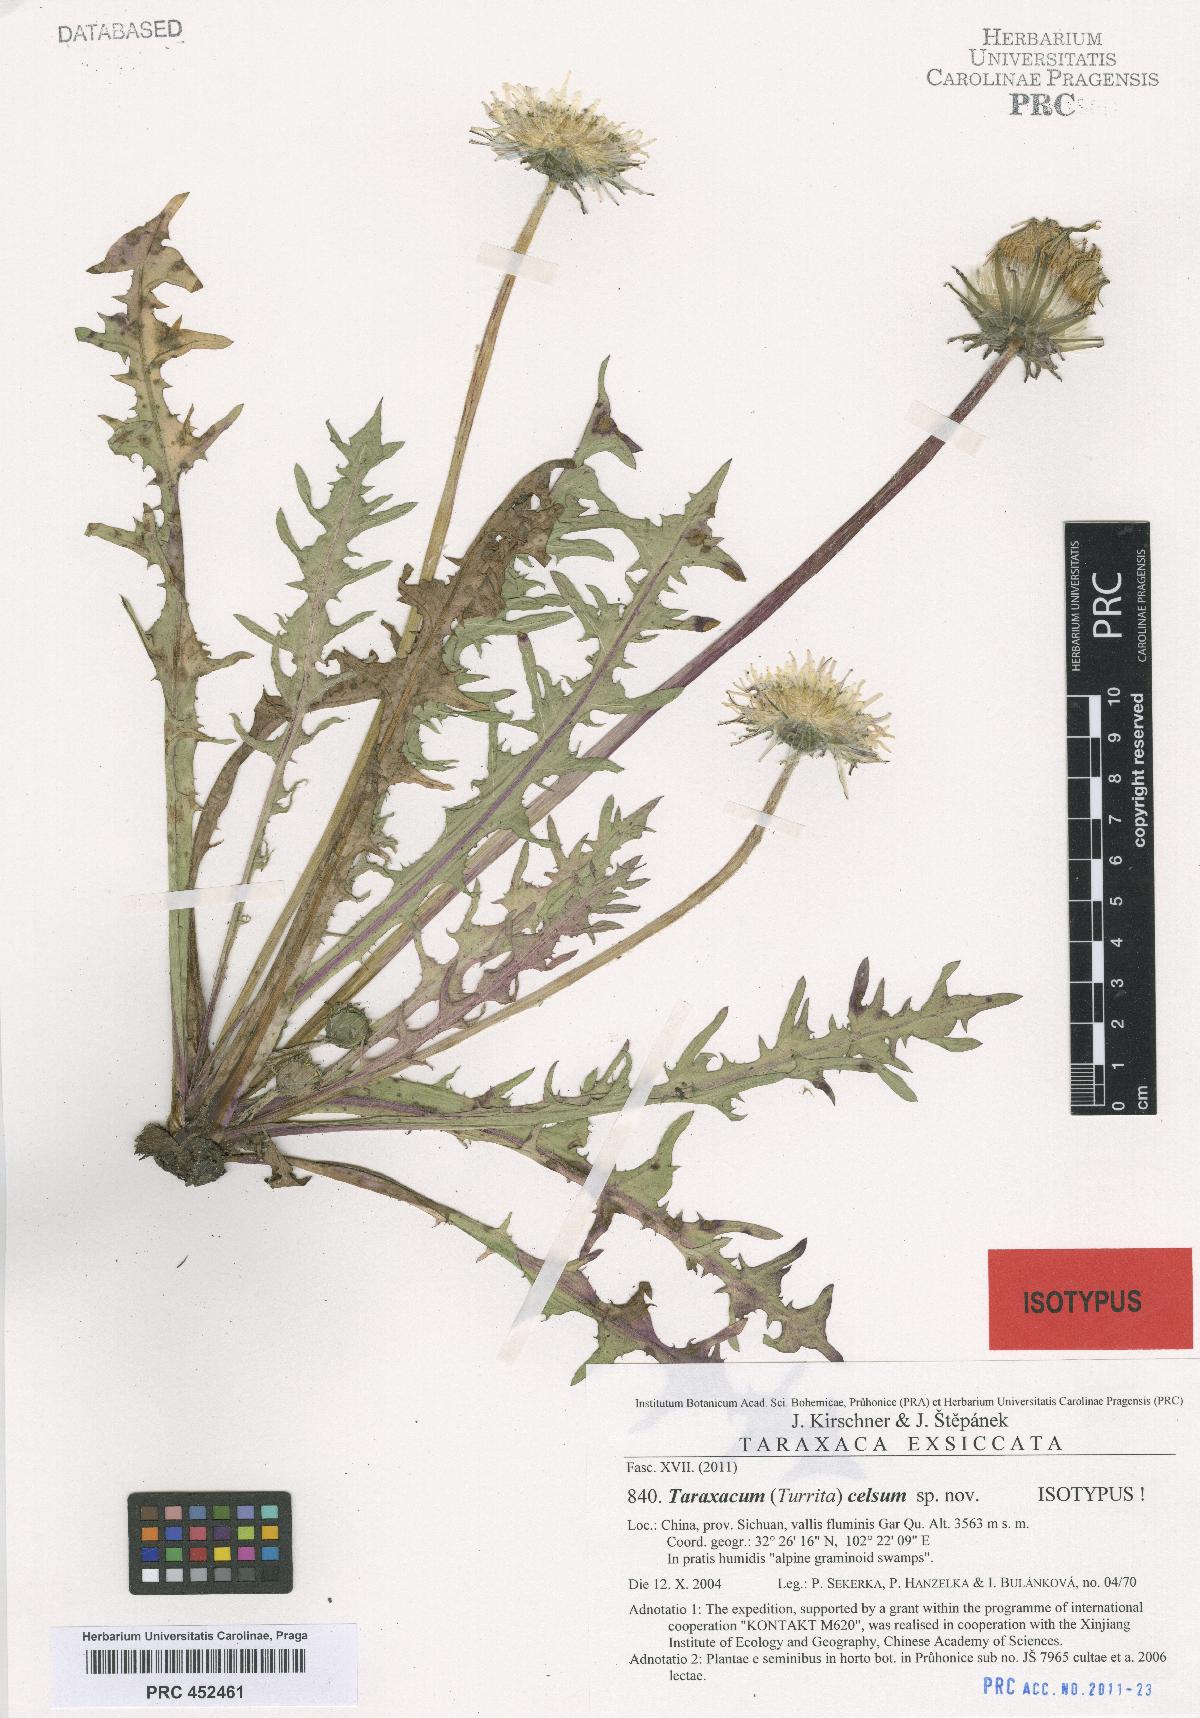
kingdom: Plantae
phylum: Tracheophyta
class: Magnoliopsida
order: Asterales
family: Asteraceae
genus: Taraxacum
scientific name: Taraxacum celsum
